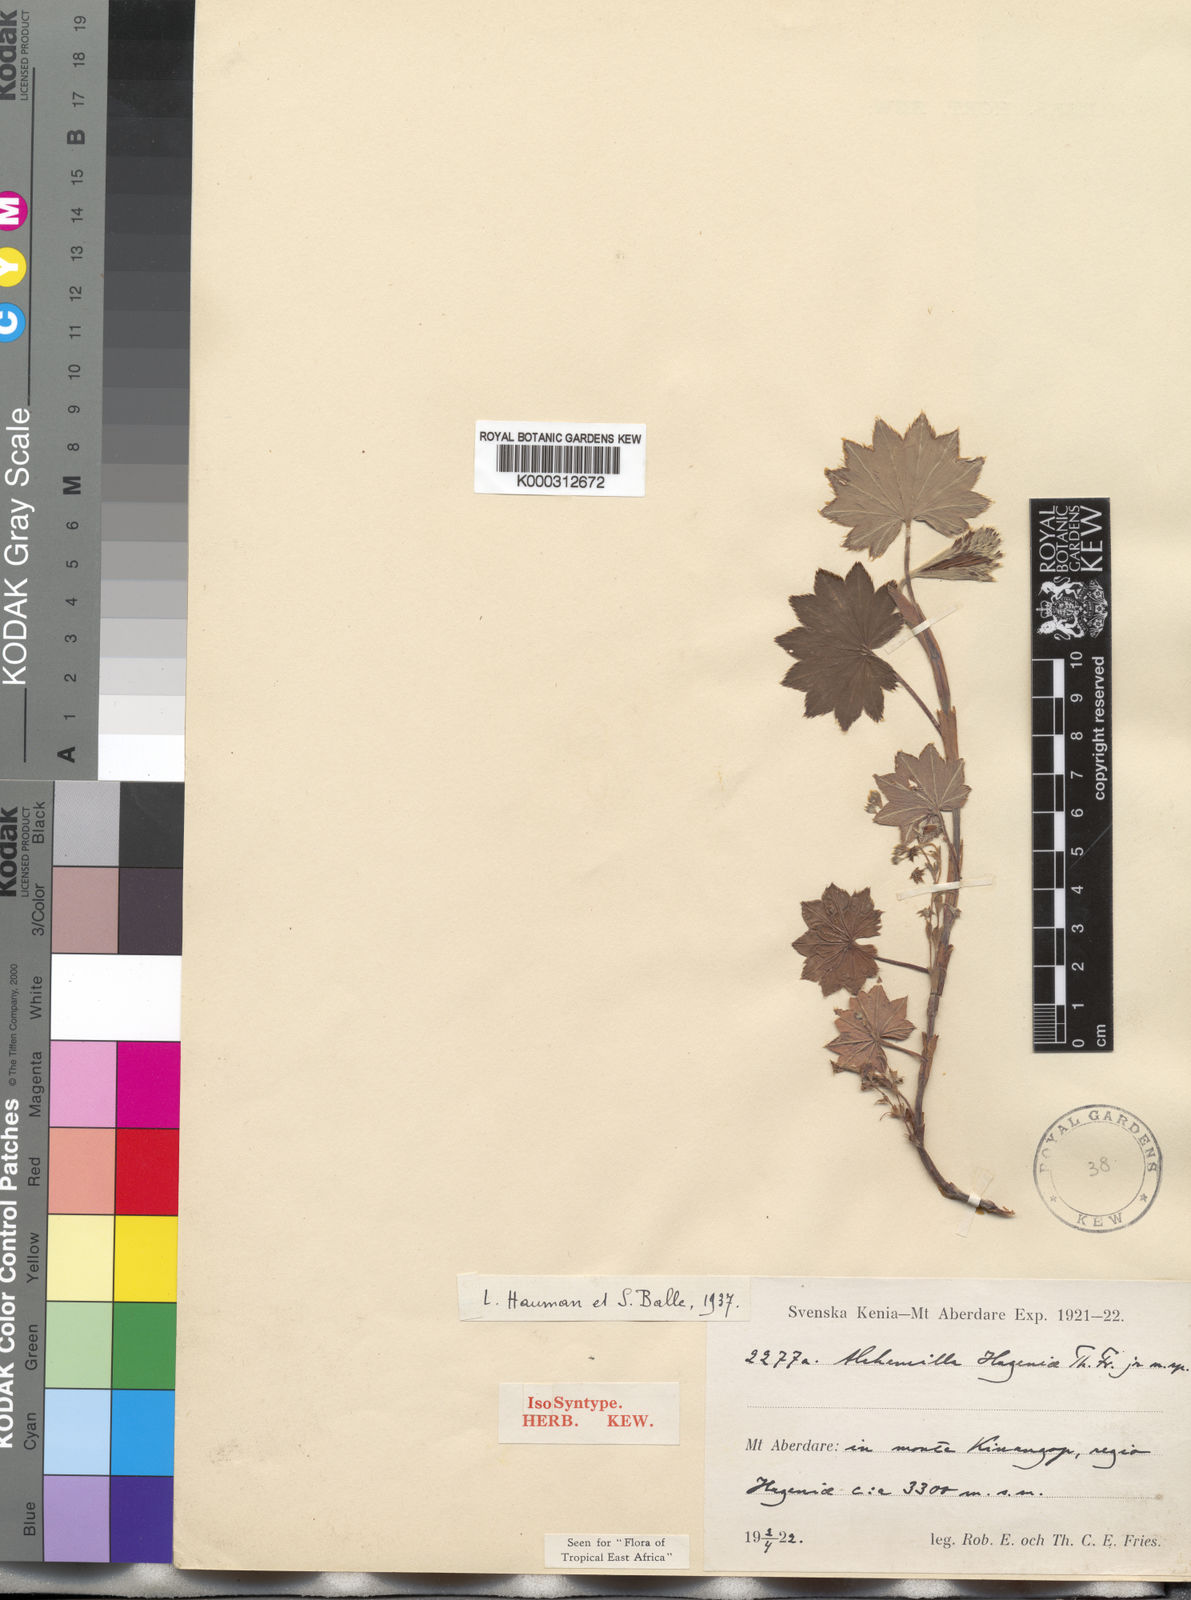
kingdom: Plantae
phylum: Tracheophyta
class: Magnoliopsida
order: Rosales
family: Rosaceae
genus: Alchemilla
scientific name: Alchemilla
